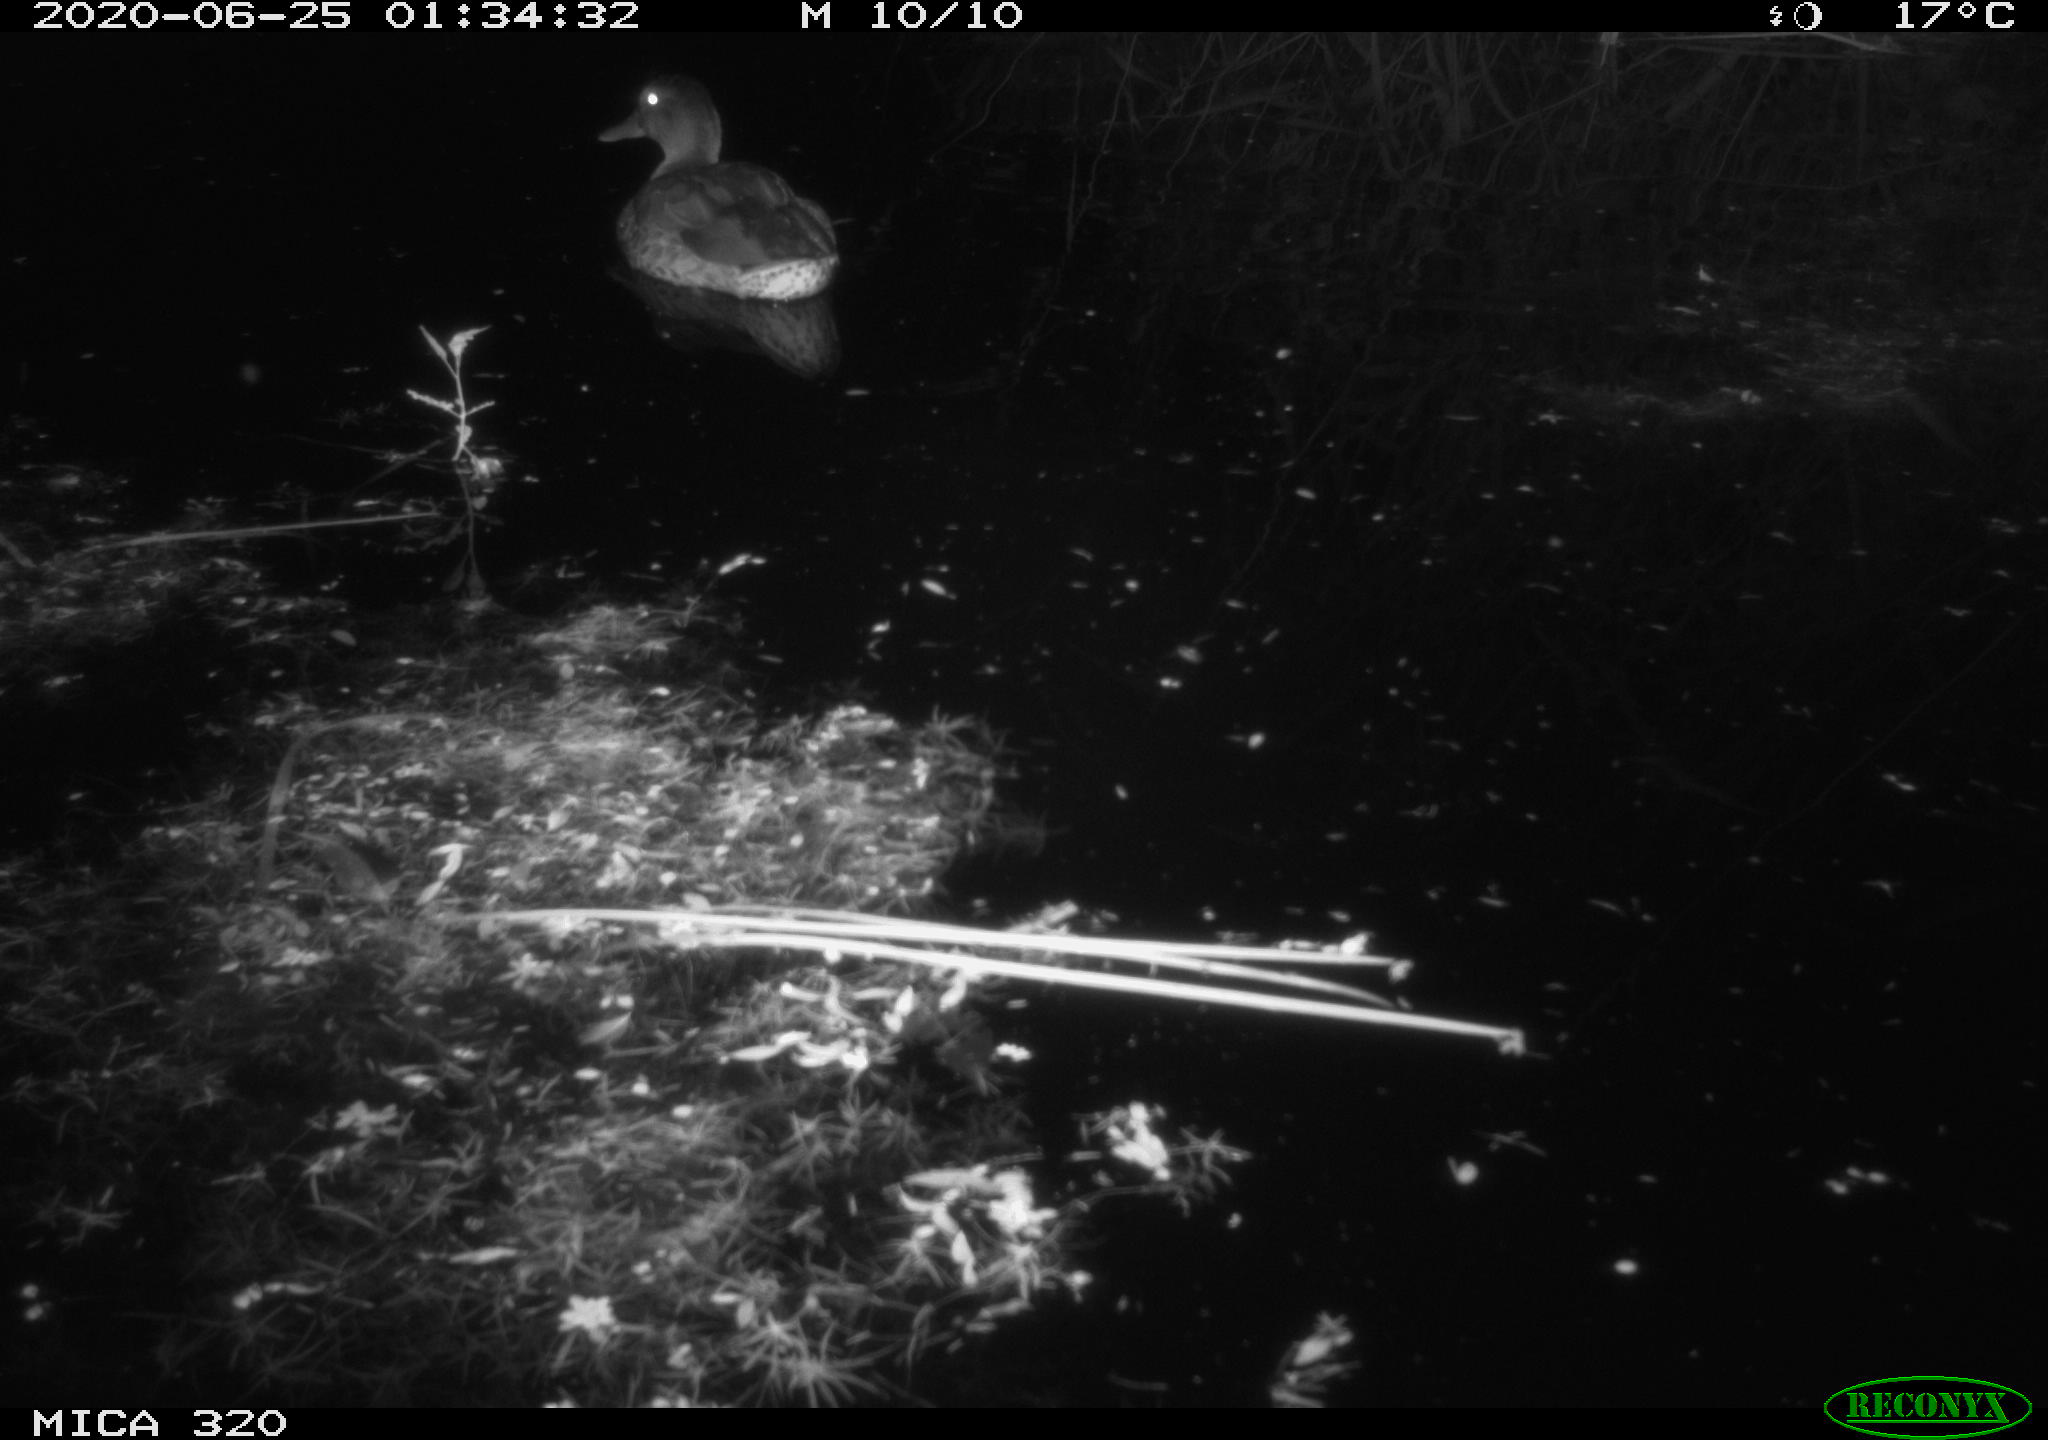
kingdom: Animalia
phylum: Chordata
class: Aves
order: Anseriformes
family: Anatidae
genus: Anas
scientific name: Anas platyrhynchos
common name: Mallard
